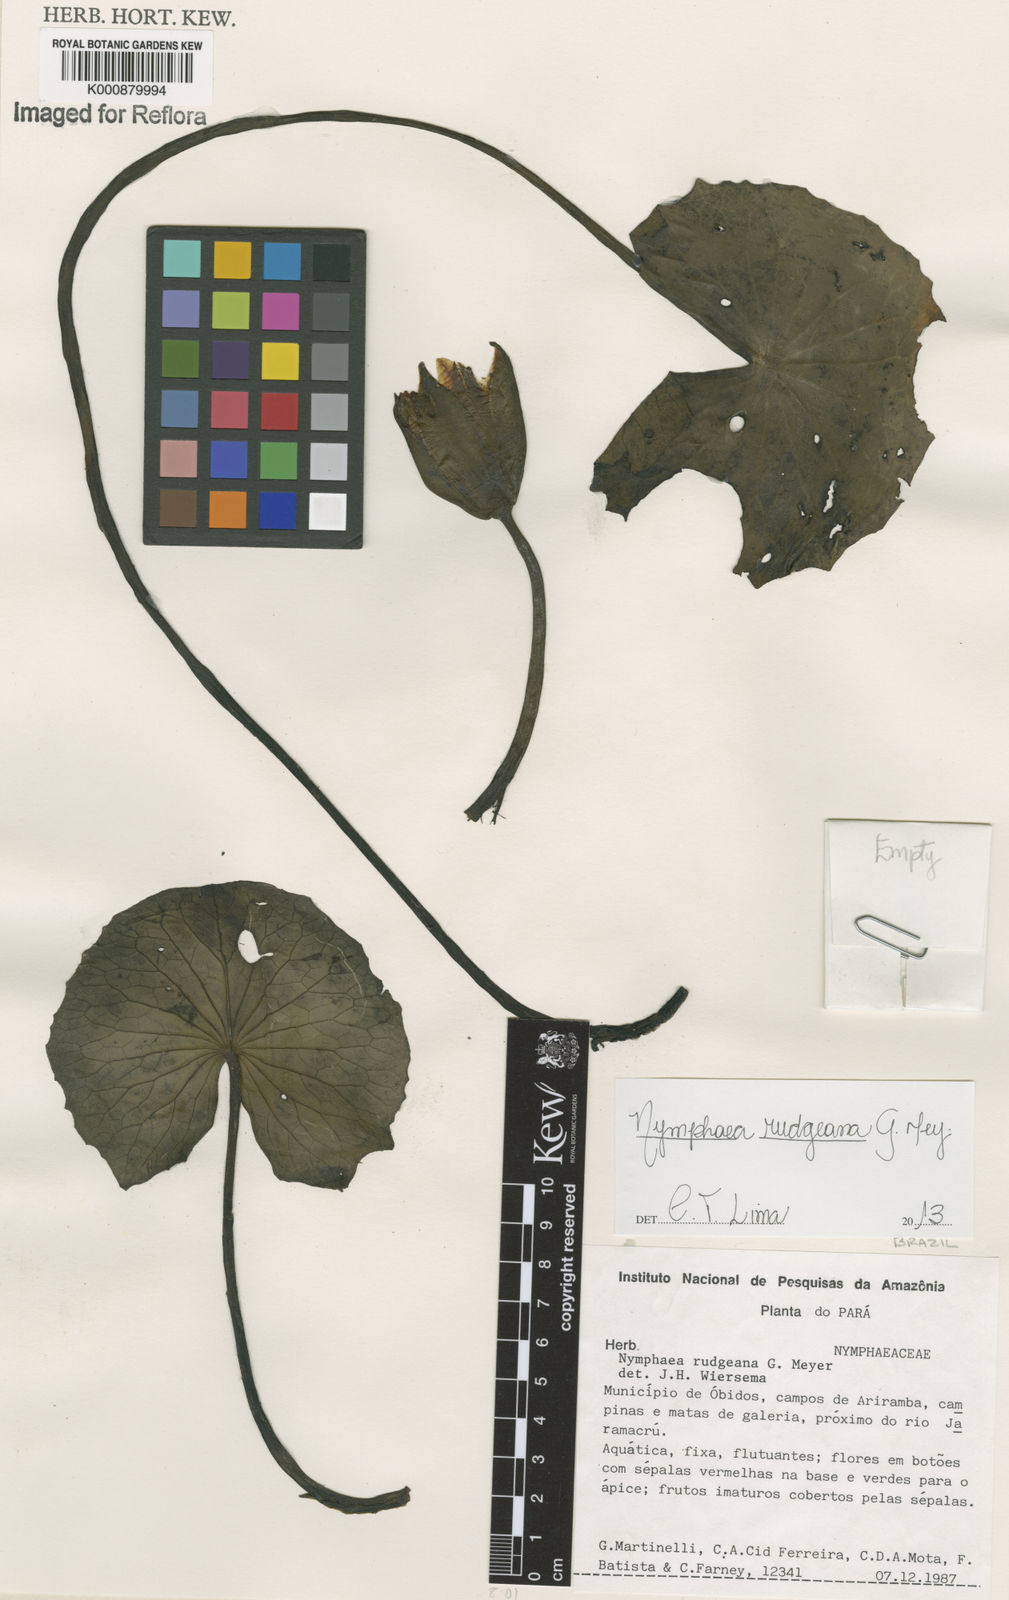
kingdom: Plantae
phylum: Tracheophyta
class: Magnoliopsida
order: Nymphaeales
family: Nymphaeaceae
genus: Nymphaea
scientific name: Nymphaea rudgeana
